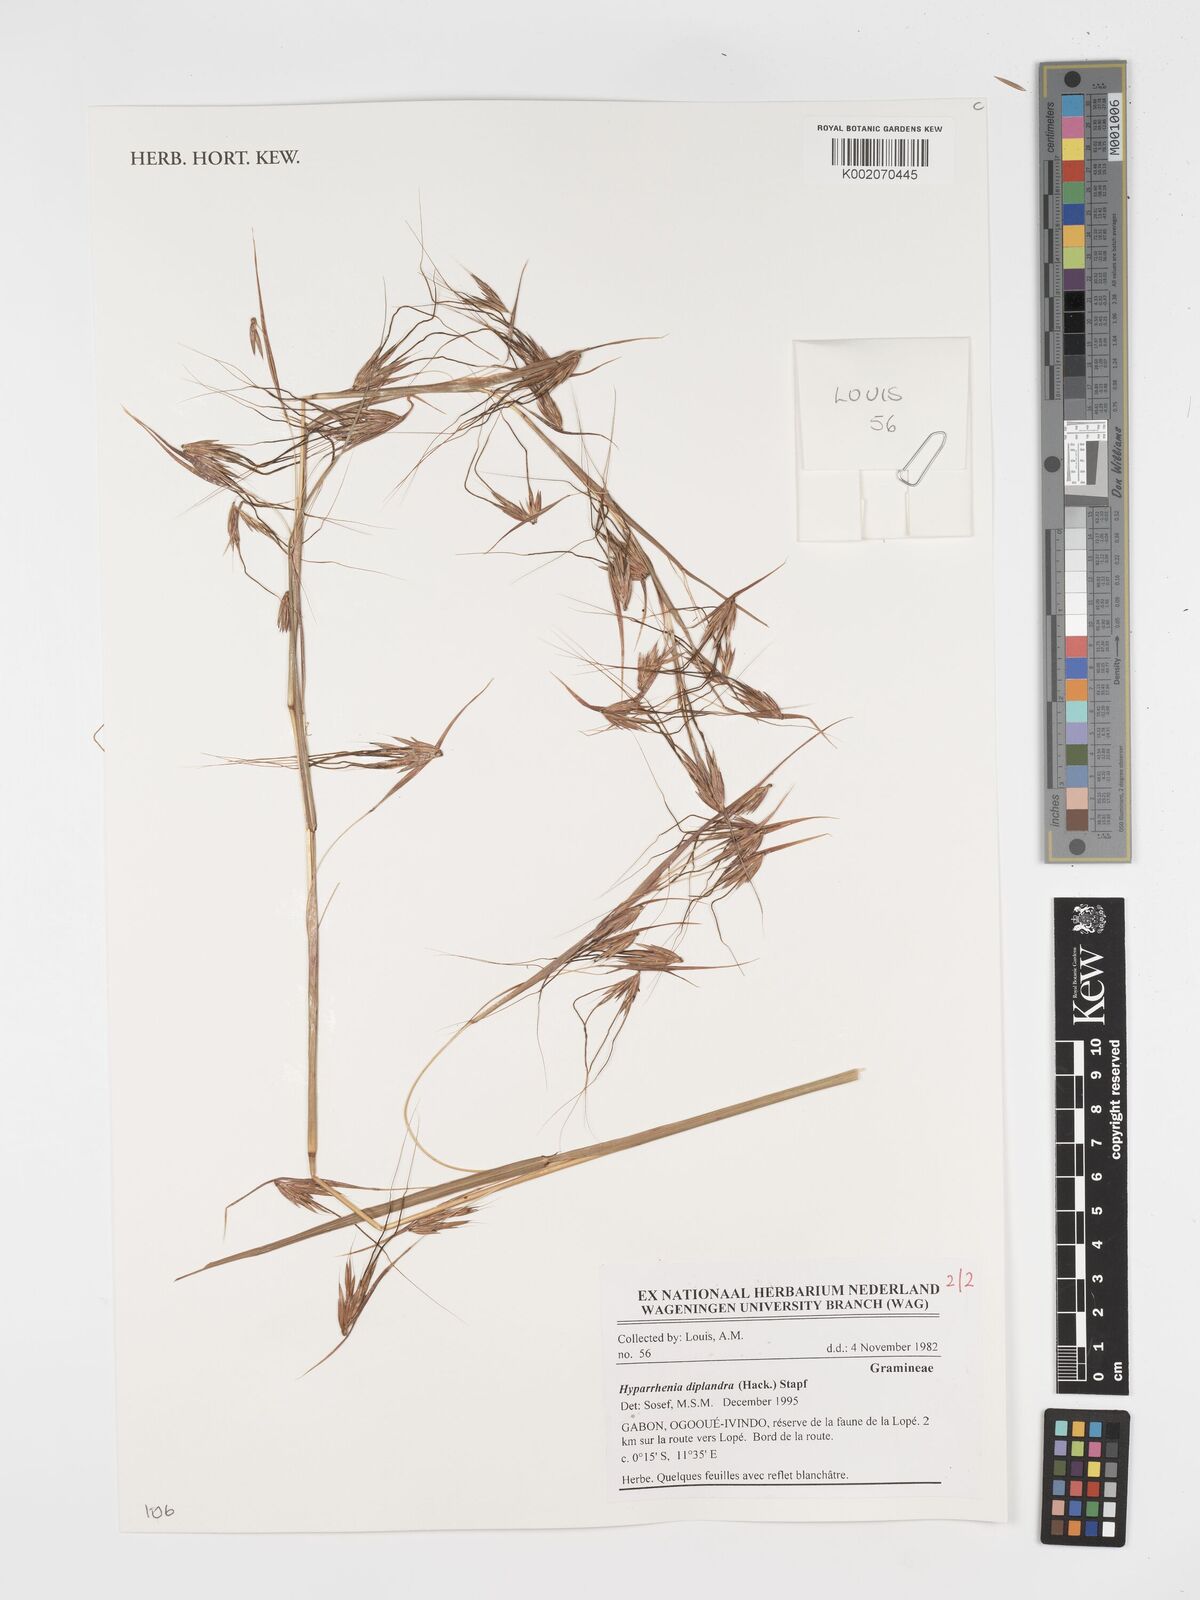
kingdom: Plantae
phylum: Tracheophyta
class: Liliopsida
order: Poales
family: Poaceae
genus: Hyparrhenia
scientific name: Hyparrhenia diplandra
